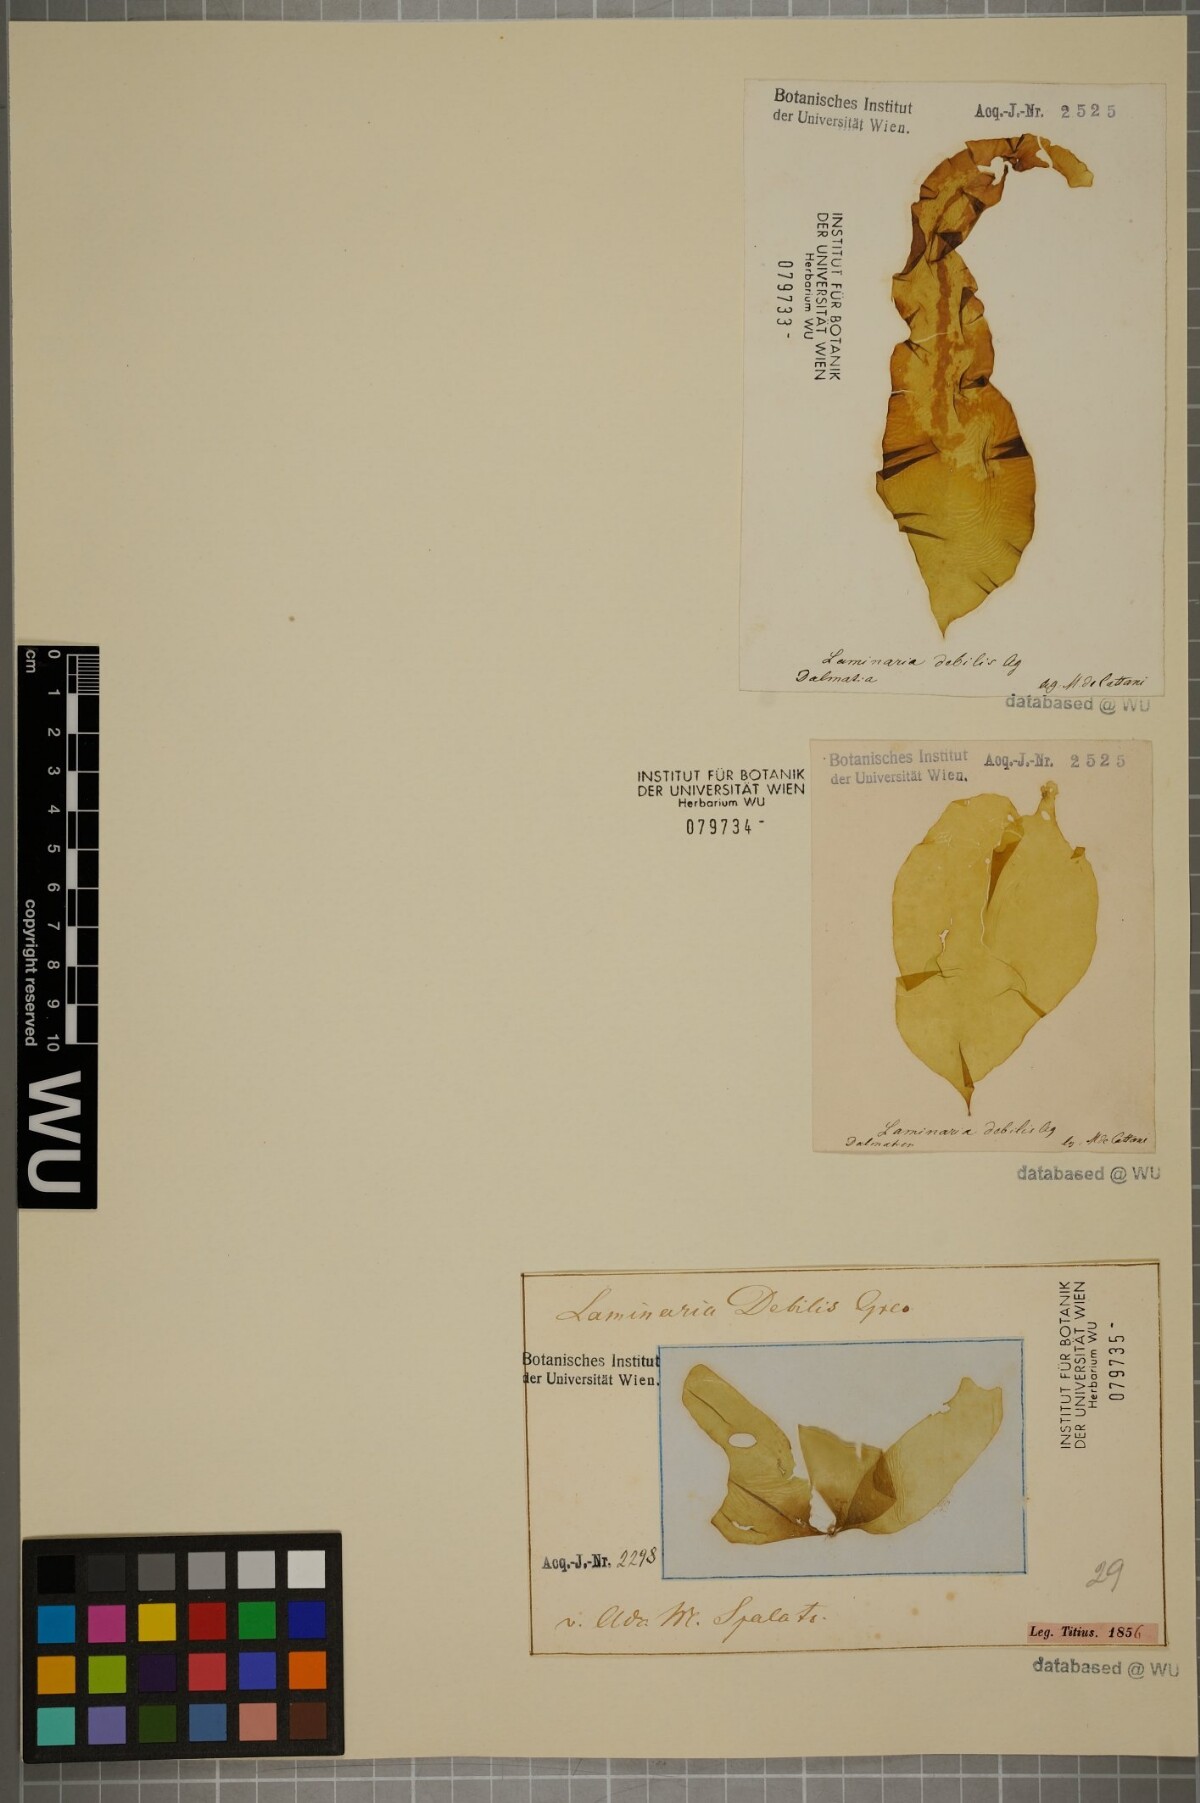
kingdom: Chromista
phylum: Ochrophyta
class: Phaeophyceae
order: Laminariales
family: Laminariaceae
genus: Laminaria
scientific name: Laminaria
